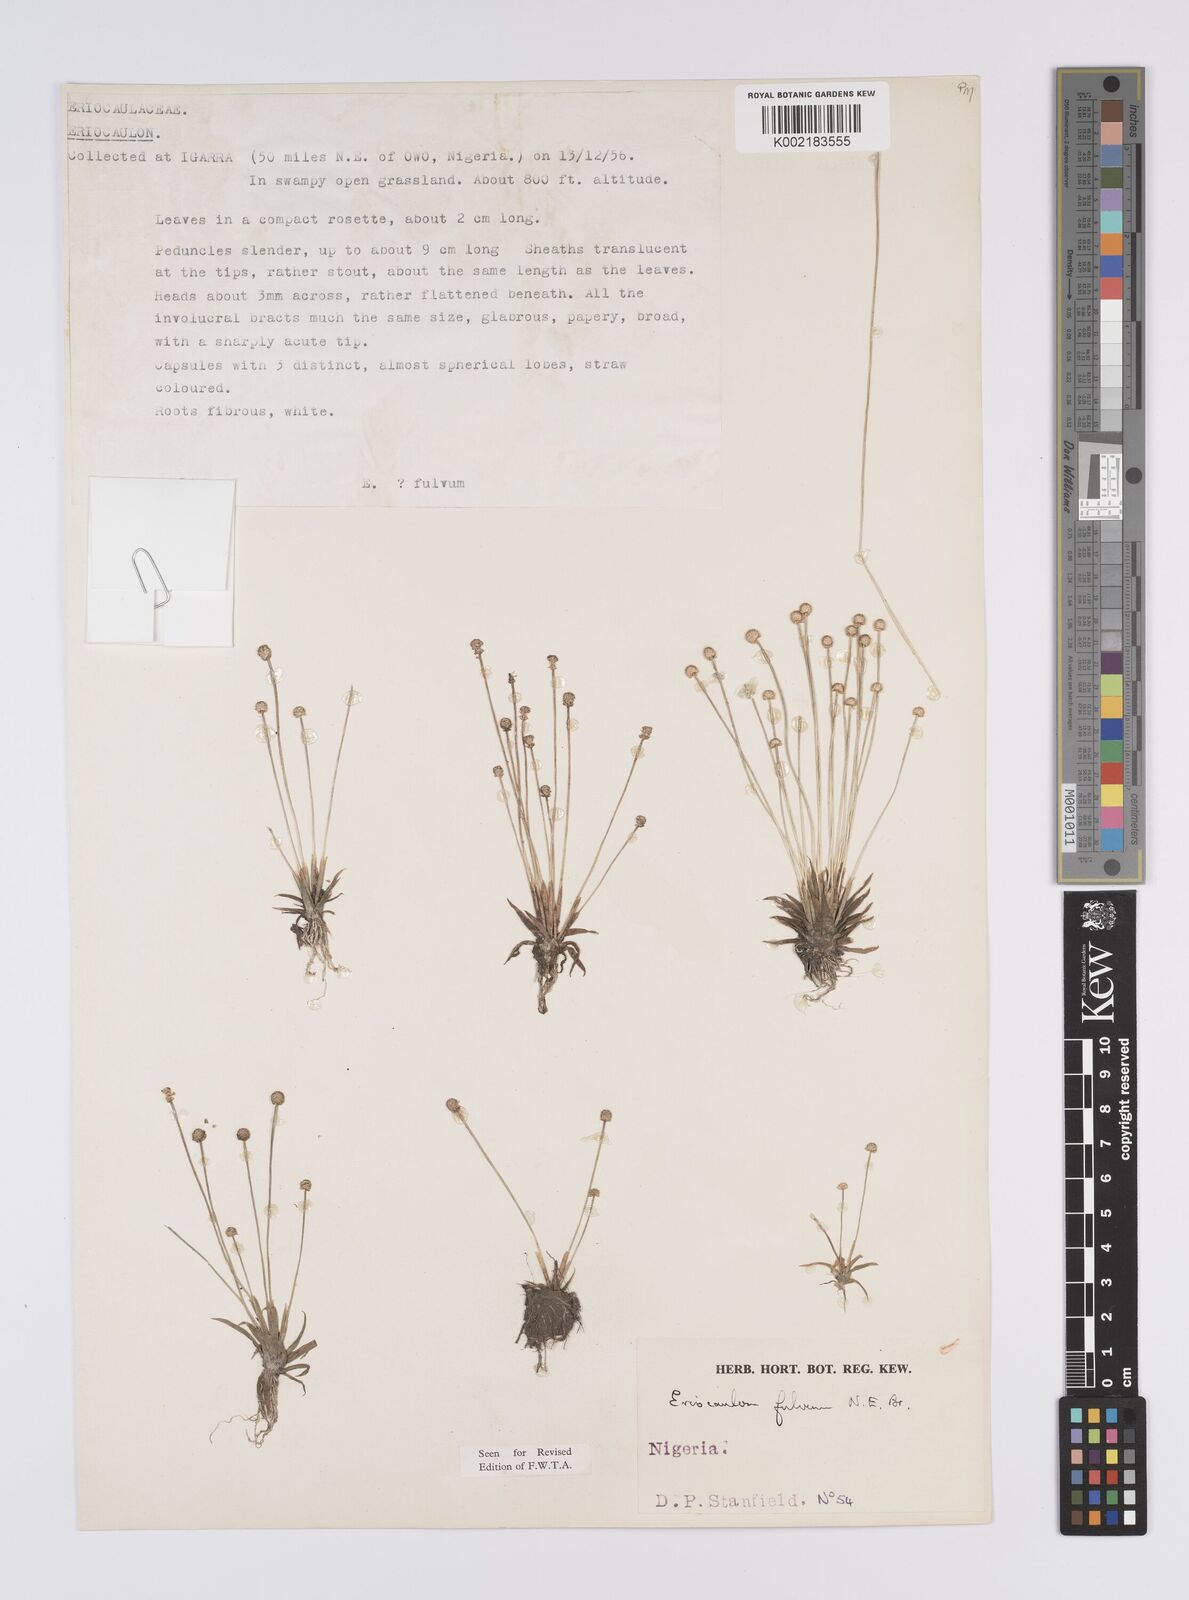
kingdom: Plantae
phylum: Tracheophyta
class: Liliopsida
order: Poales
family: Eriocaulaceae
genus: Eriocaulon
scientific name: Eriocaulon fulvum
